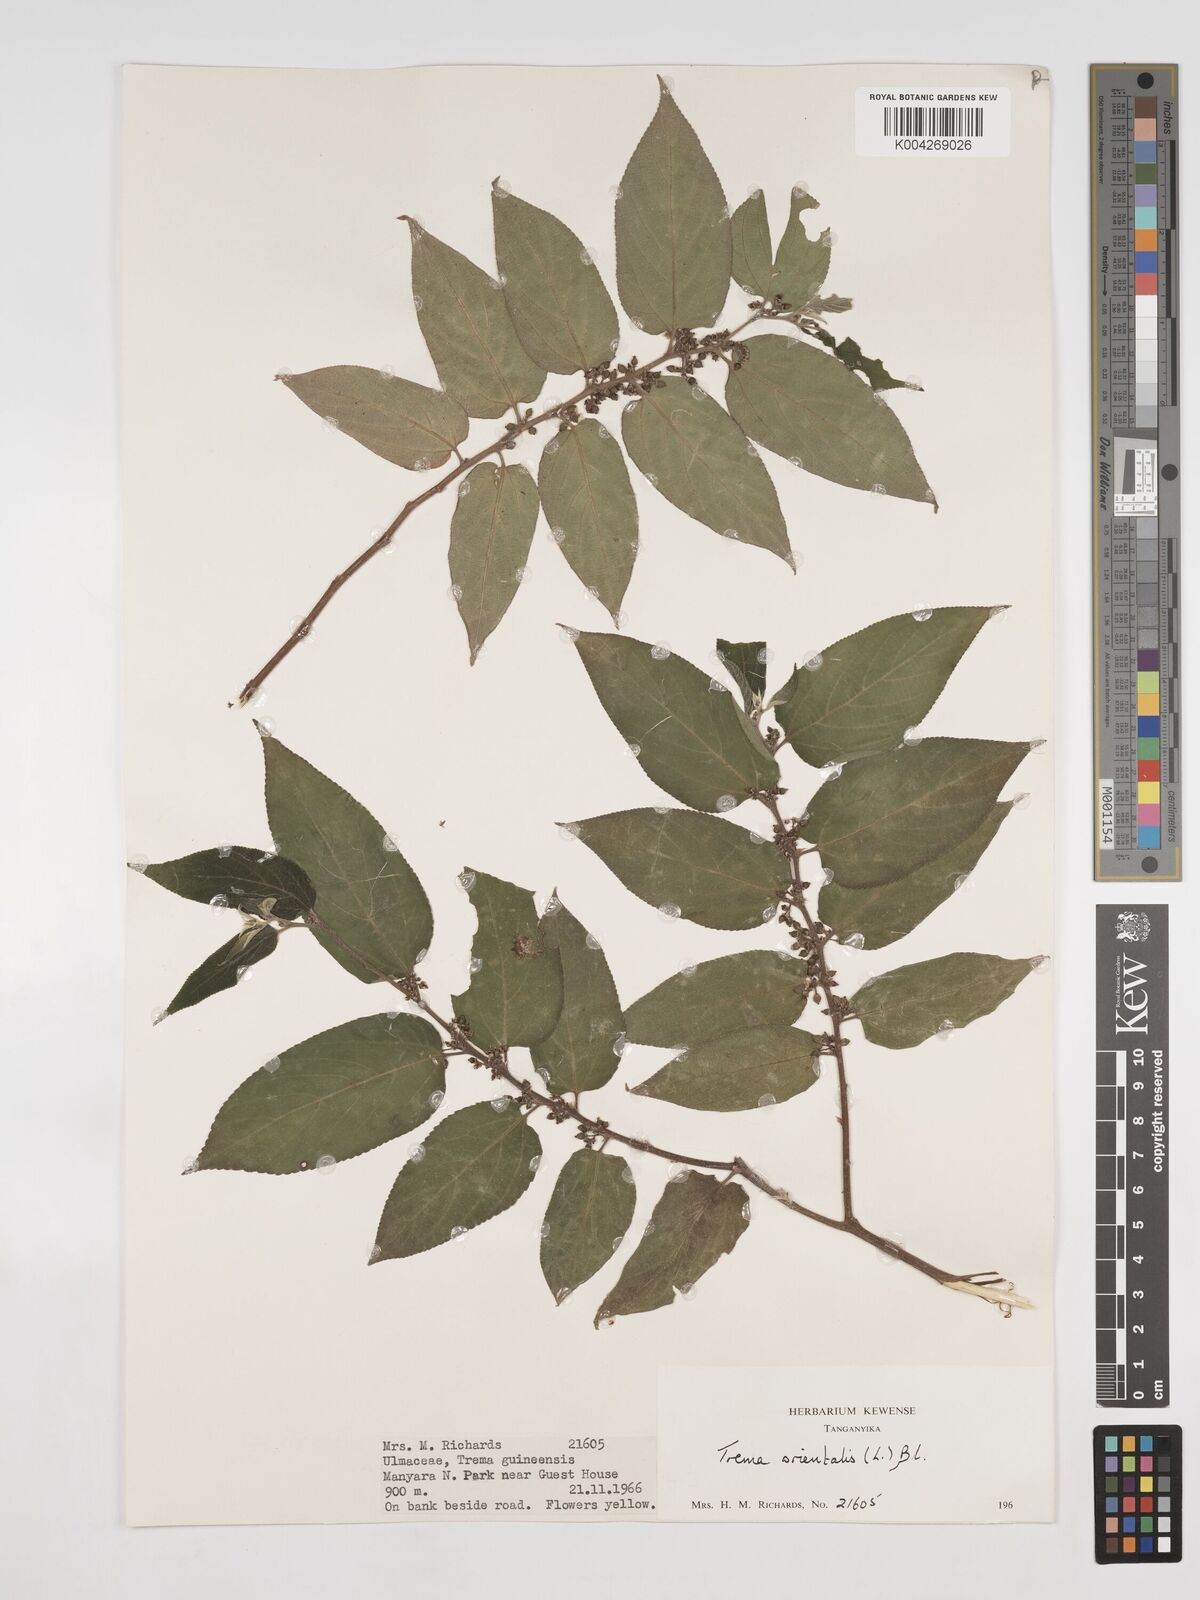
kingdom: Plantae
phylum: Tracheophyta
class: Magnoliopsida
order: Rosales
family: Cannabaceae
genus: Trema
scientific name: Trema orientale
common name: Indian charcoal tree
